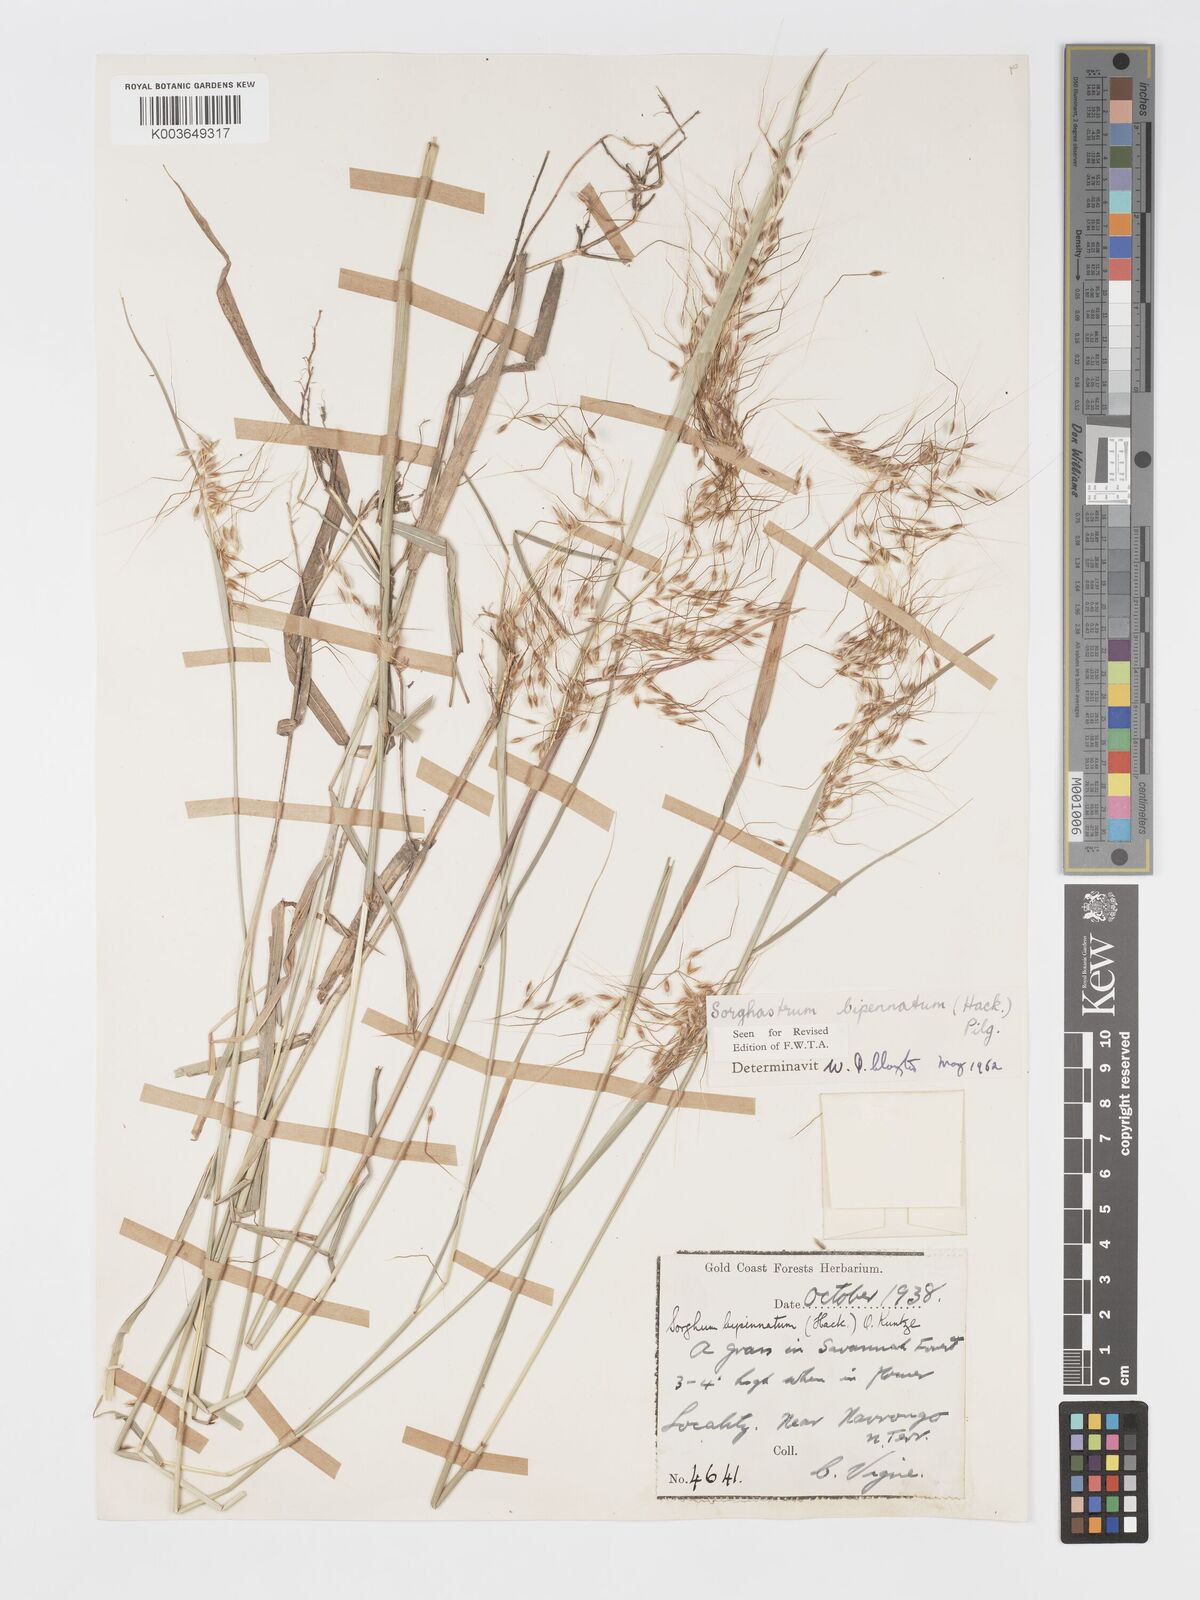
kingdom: Plantae
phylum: Tracheophyta
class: Liliopsida
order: Poales
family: Poaceae
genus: Sorghastrum
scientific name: Sorghastrum incompletum
